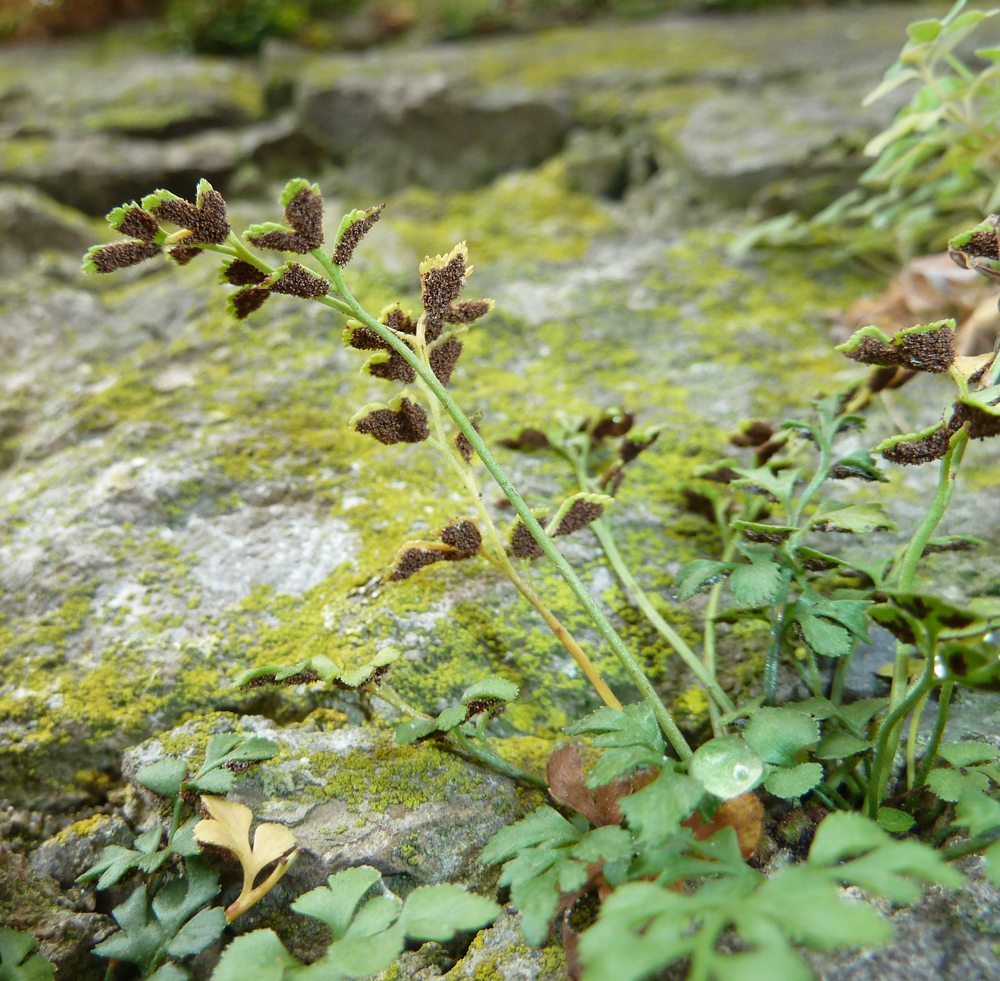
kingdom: Plantae
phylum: Tracheophyta
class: Polypodiopsida
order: Polypodiales
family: Aspleniaceae
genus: Asplenium
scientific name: Asplenium ruta-muraria
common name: Wall-rue
